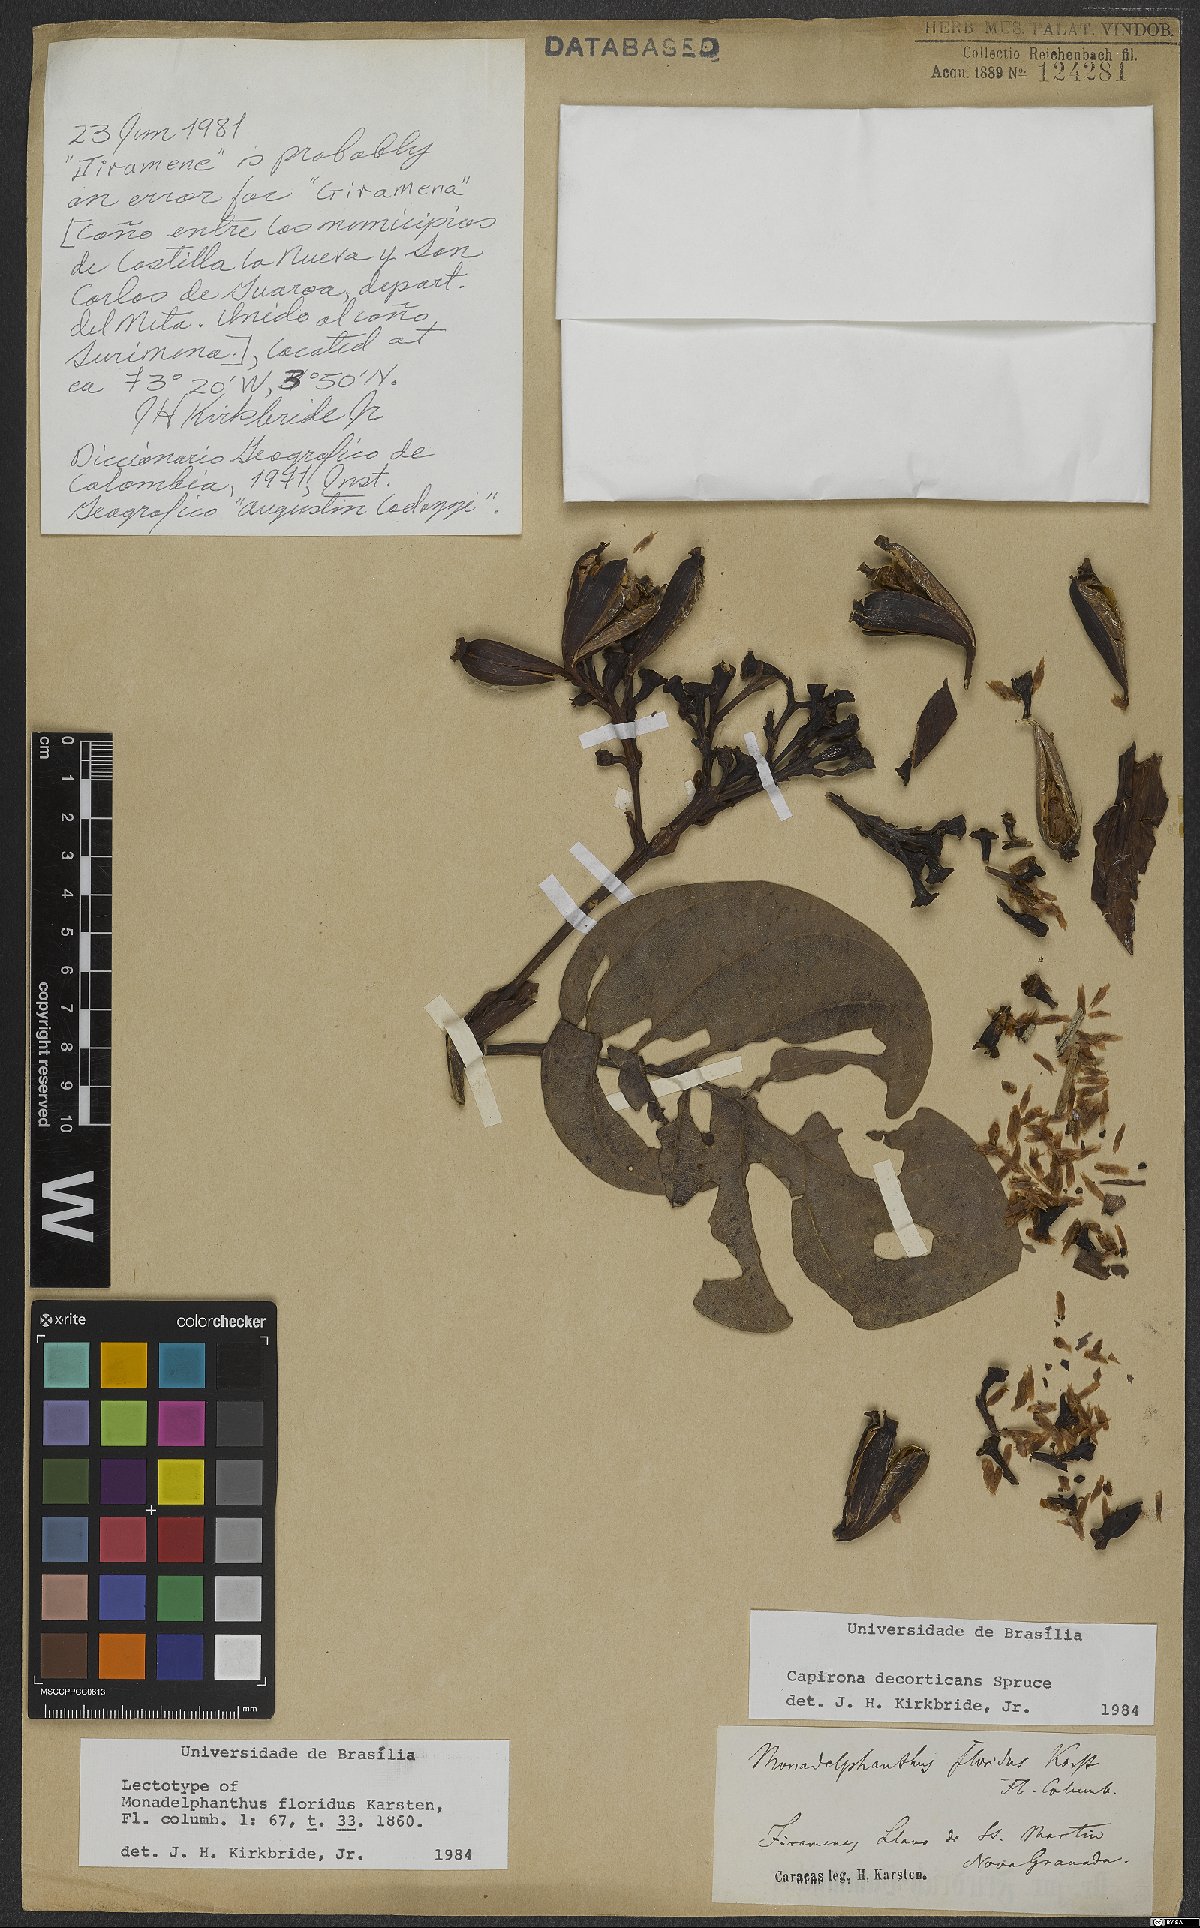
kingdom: Plantae
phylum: Tracheophyta
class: Magnoliopsida
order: Gentianales
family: Rubiaceae
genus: Capirona
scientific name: Capirona macrophylla
